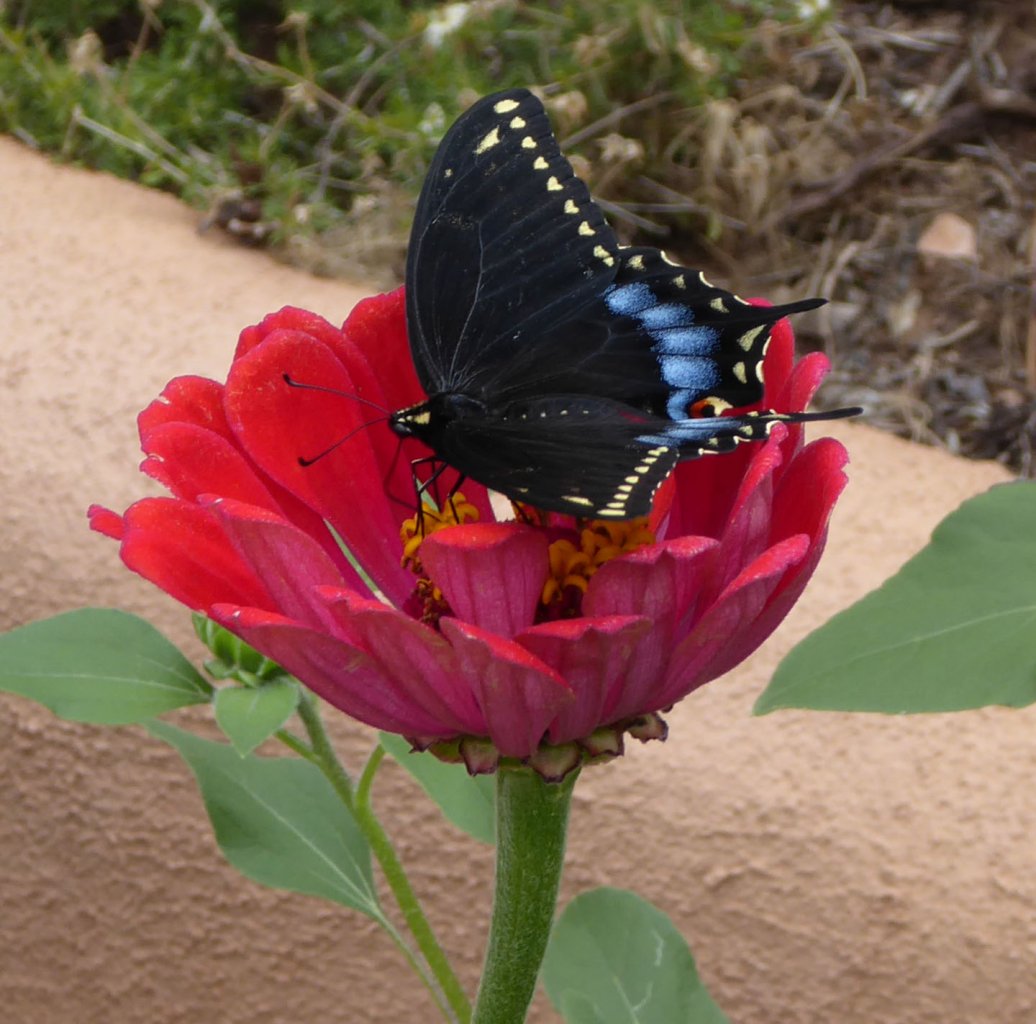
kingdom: Animalia
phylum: Arthropoda
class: Insecta
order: Lepidoptera
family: Papilionidae
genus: Papilio
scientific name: Papilio polyxenes
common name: Black Swallowtail
